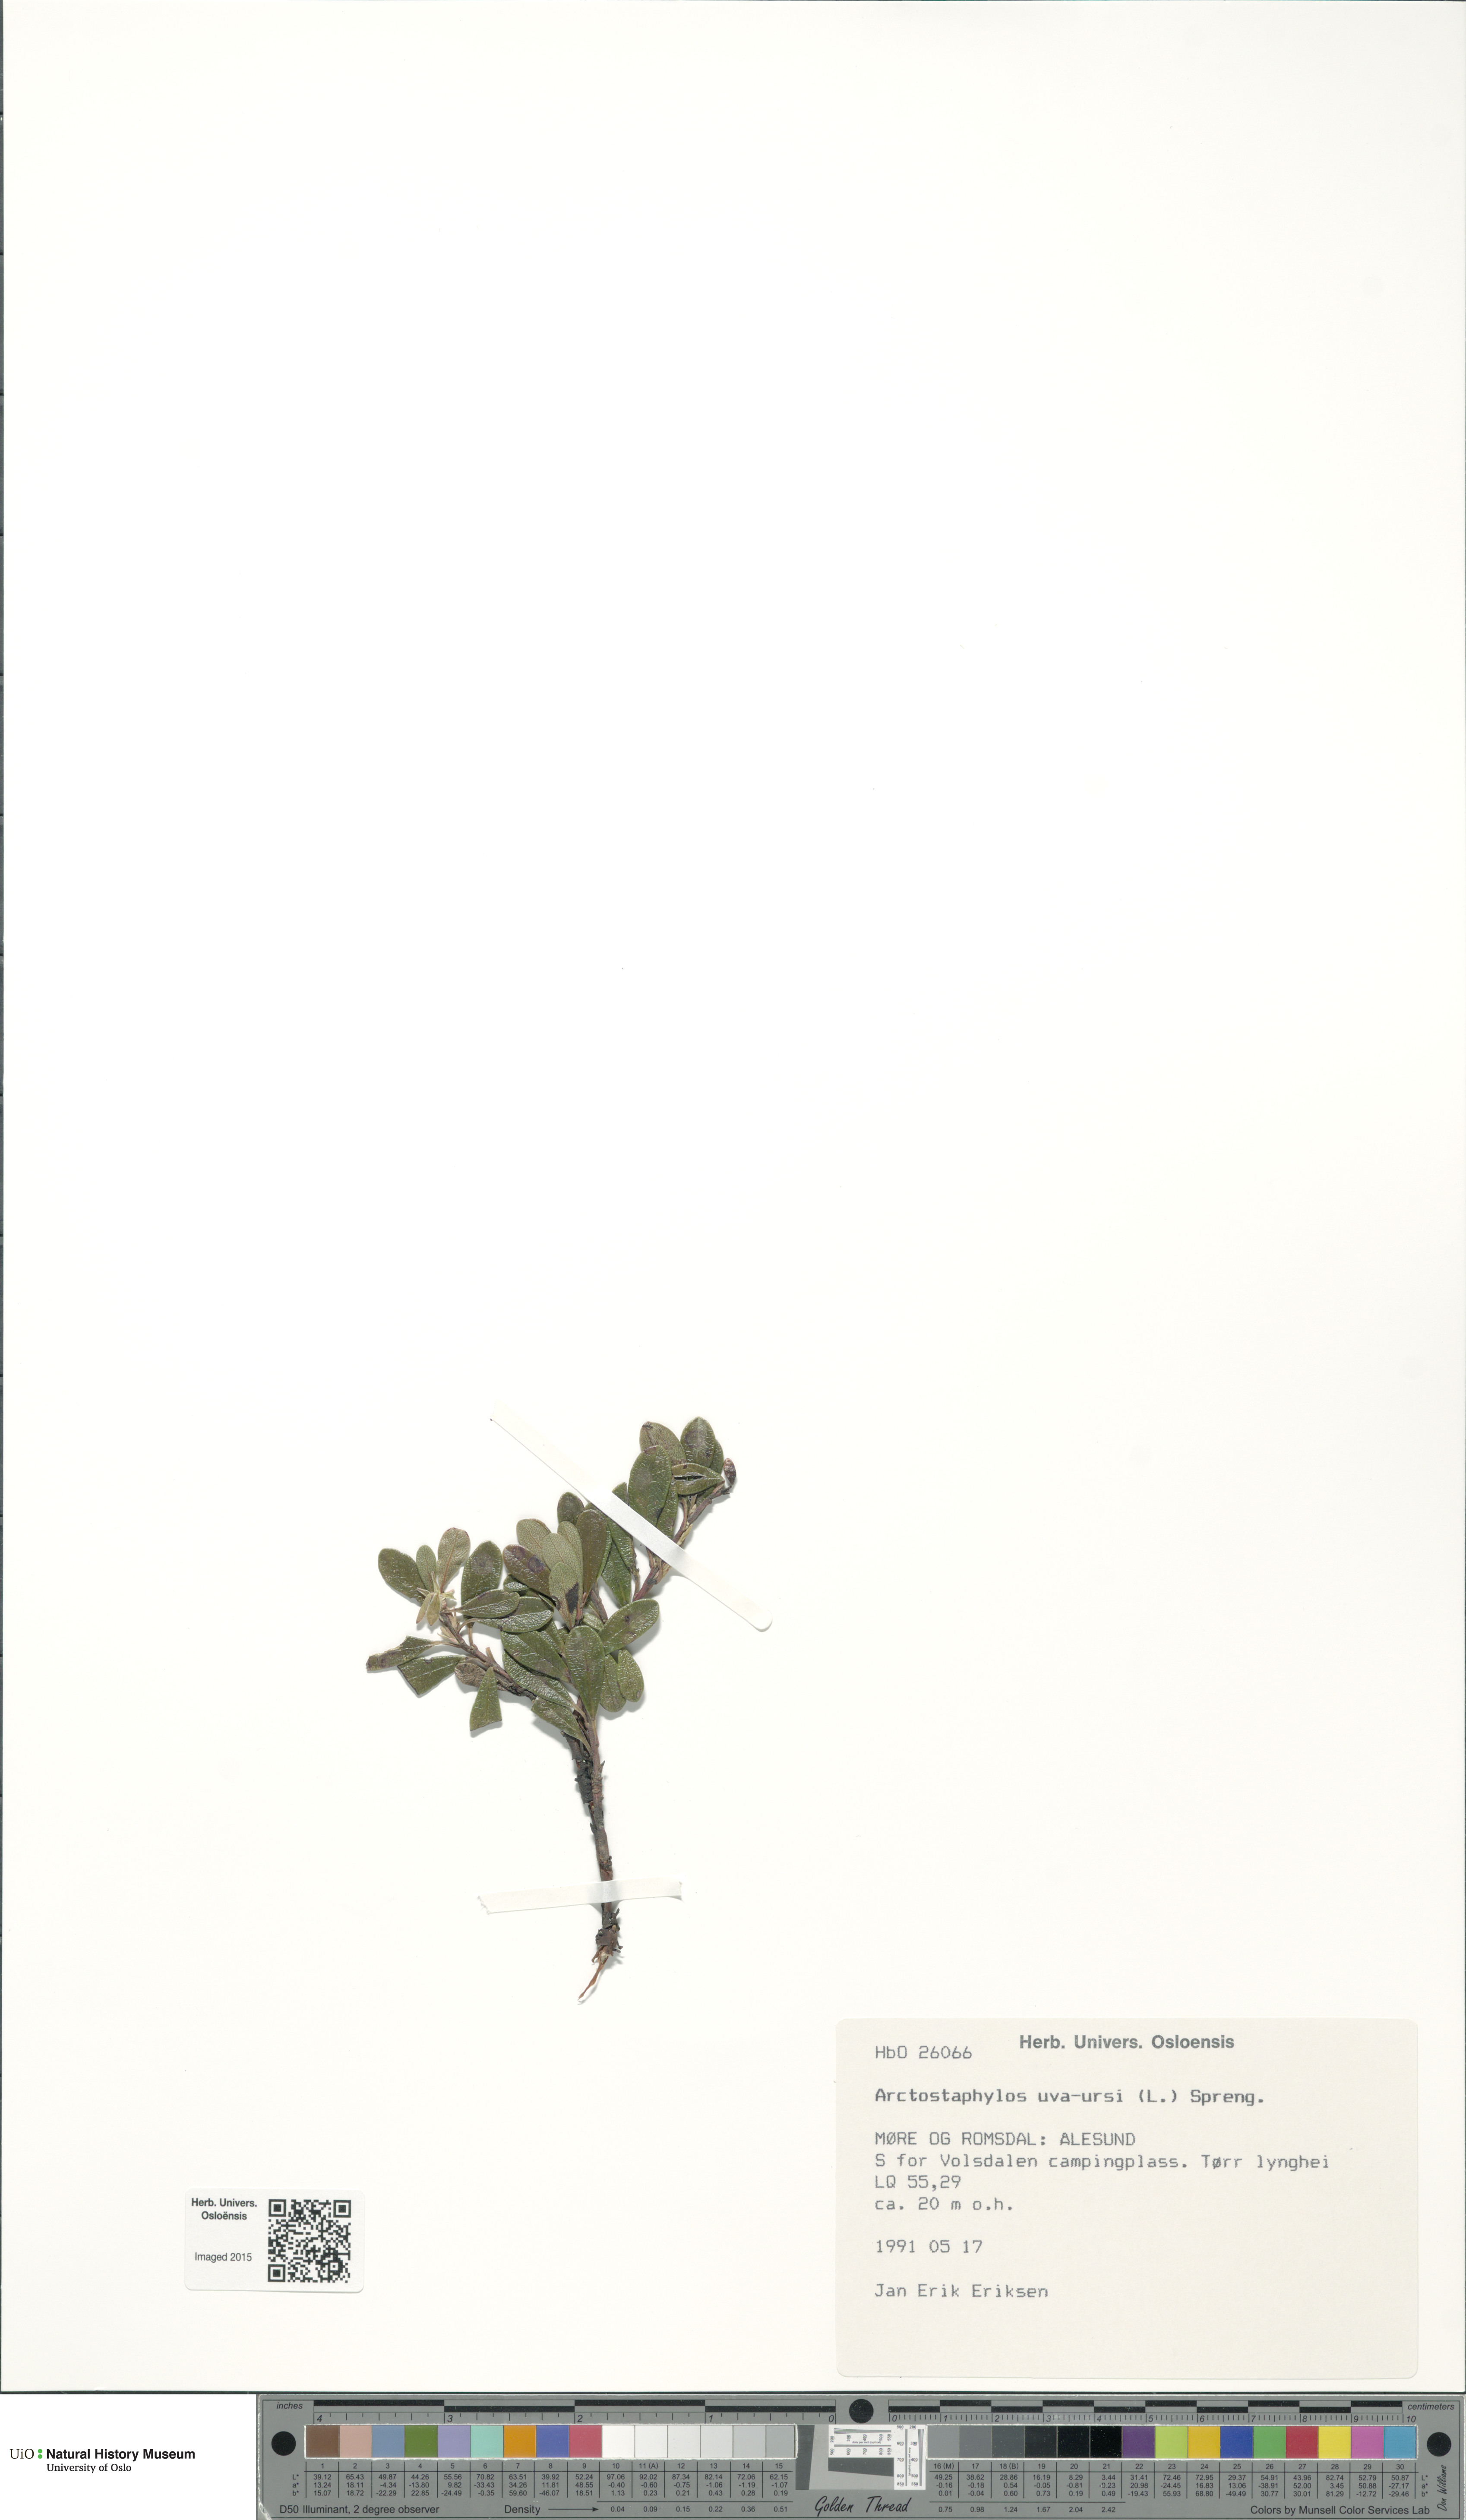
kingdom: Plantae
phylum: Tracheophyta
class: Magnoliopsida
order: Ericales
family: Ericaceae
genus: Arctostaphylos
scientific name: Arctostaphylos uva-ursi
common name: Bearberry
